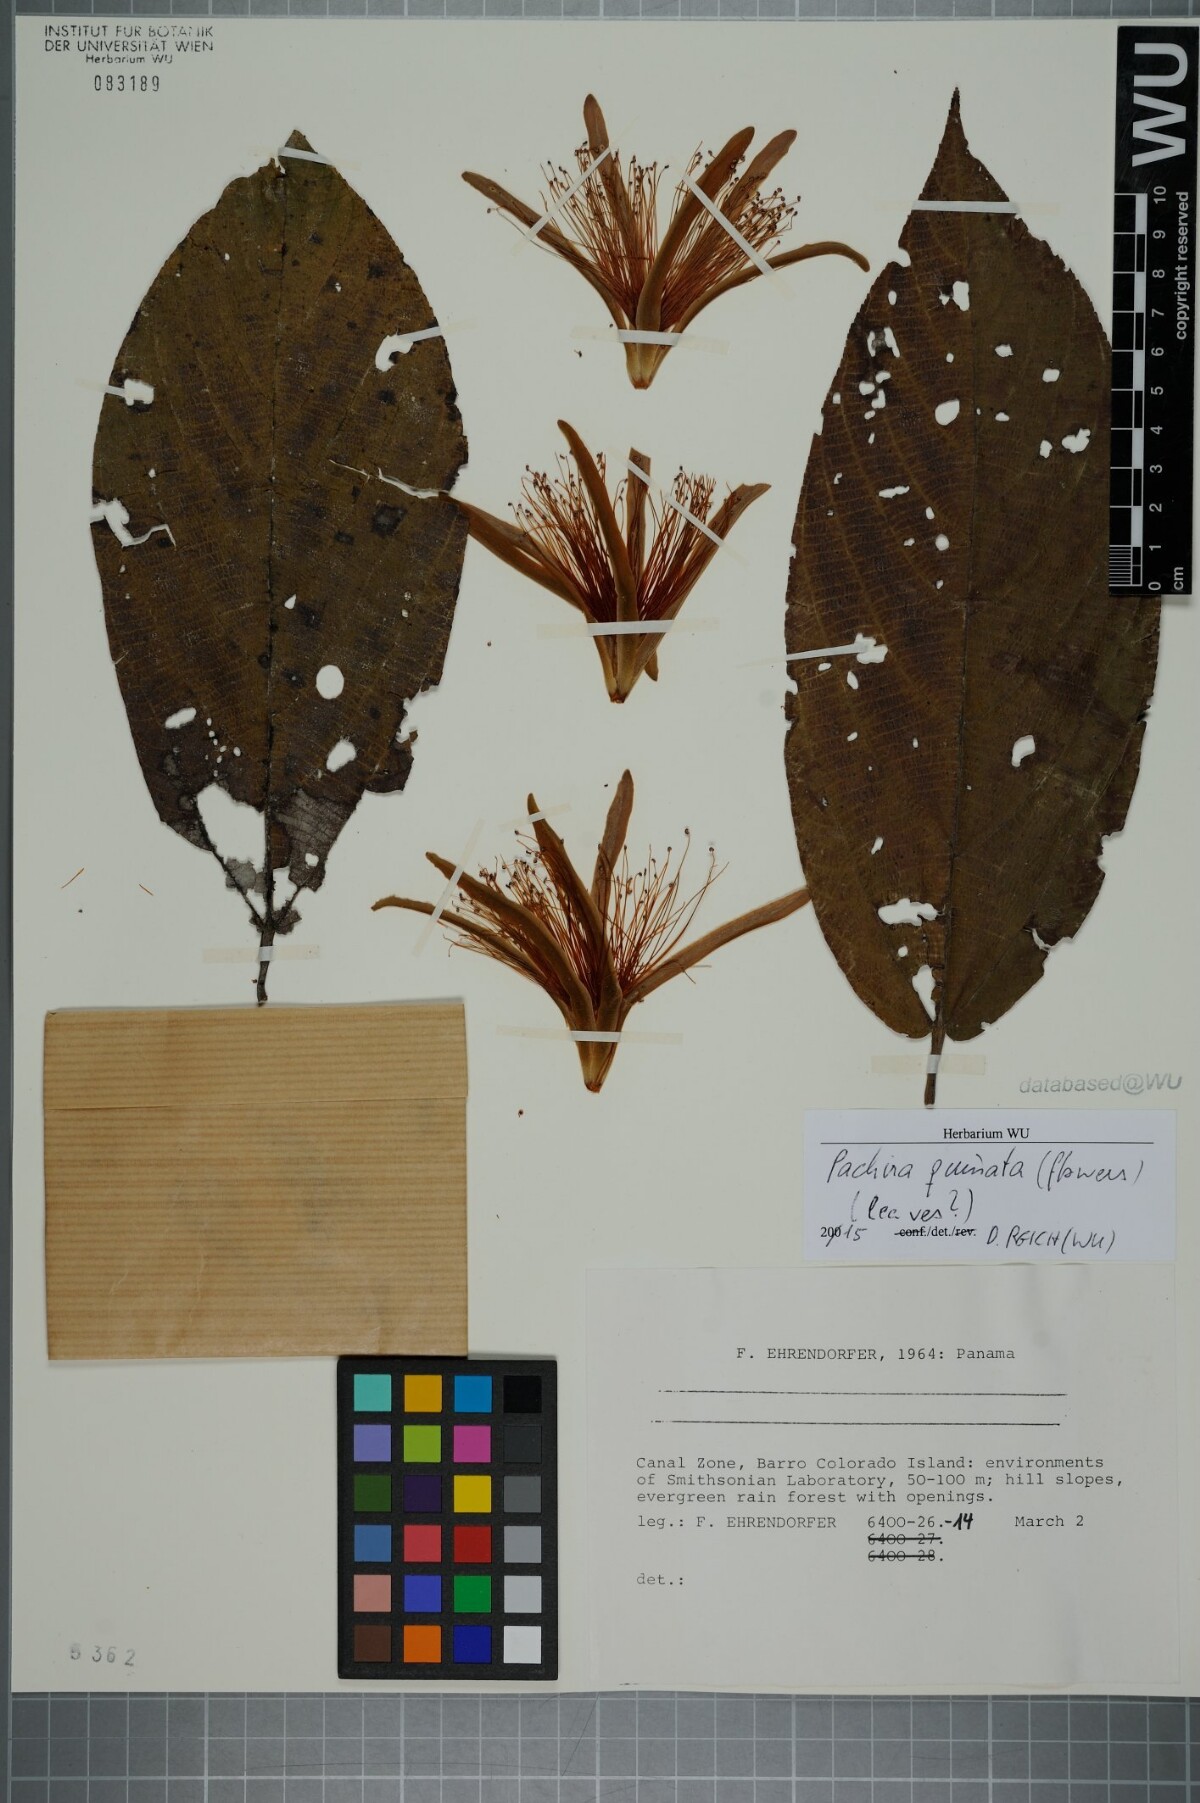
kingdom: Plantae
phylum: Tracheophyta
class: Magnoliopsida
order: Malvales
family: Malvaceae
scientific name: Malvaceae
